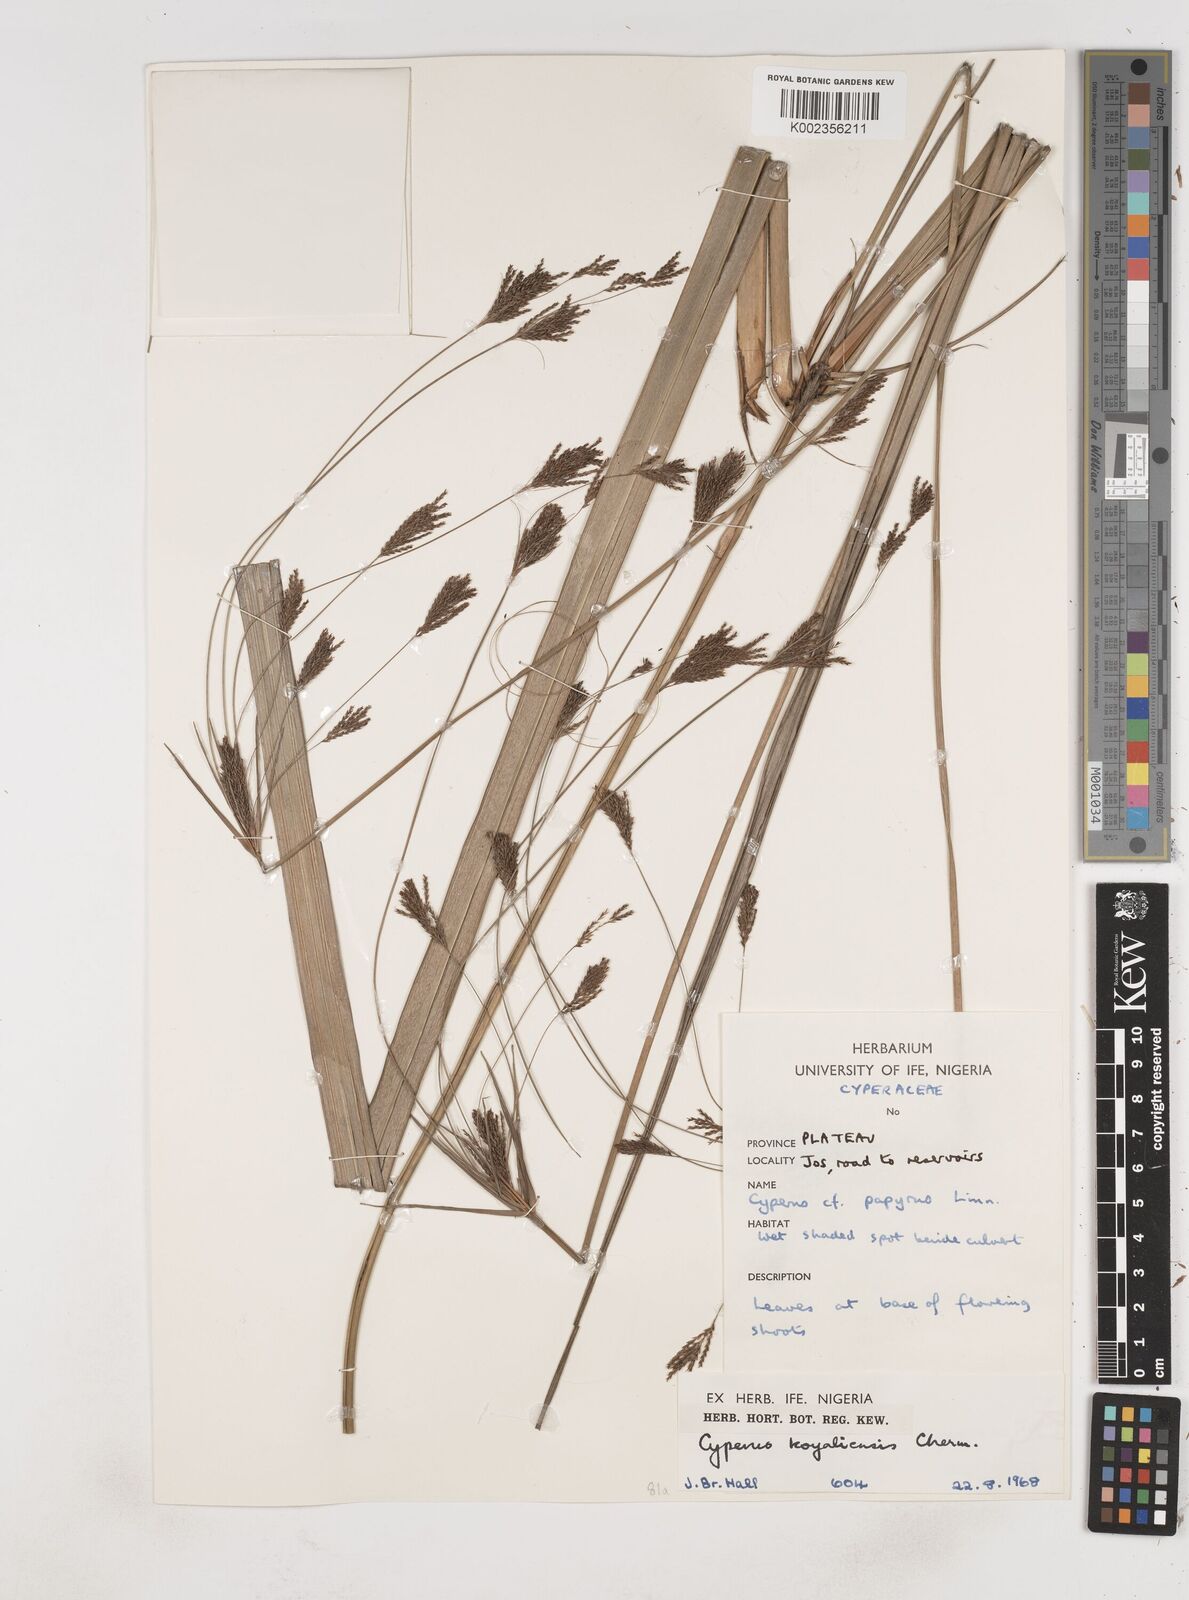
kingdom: Plantae
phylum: Tracheophyta
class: Liliopsida
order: Poales
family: Cyperaceae
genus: Cyperus
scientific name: Cyperus koyaliensis
